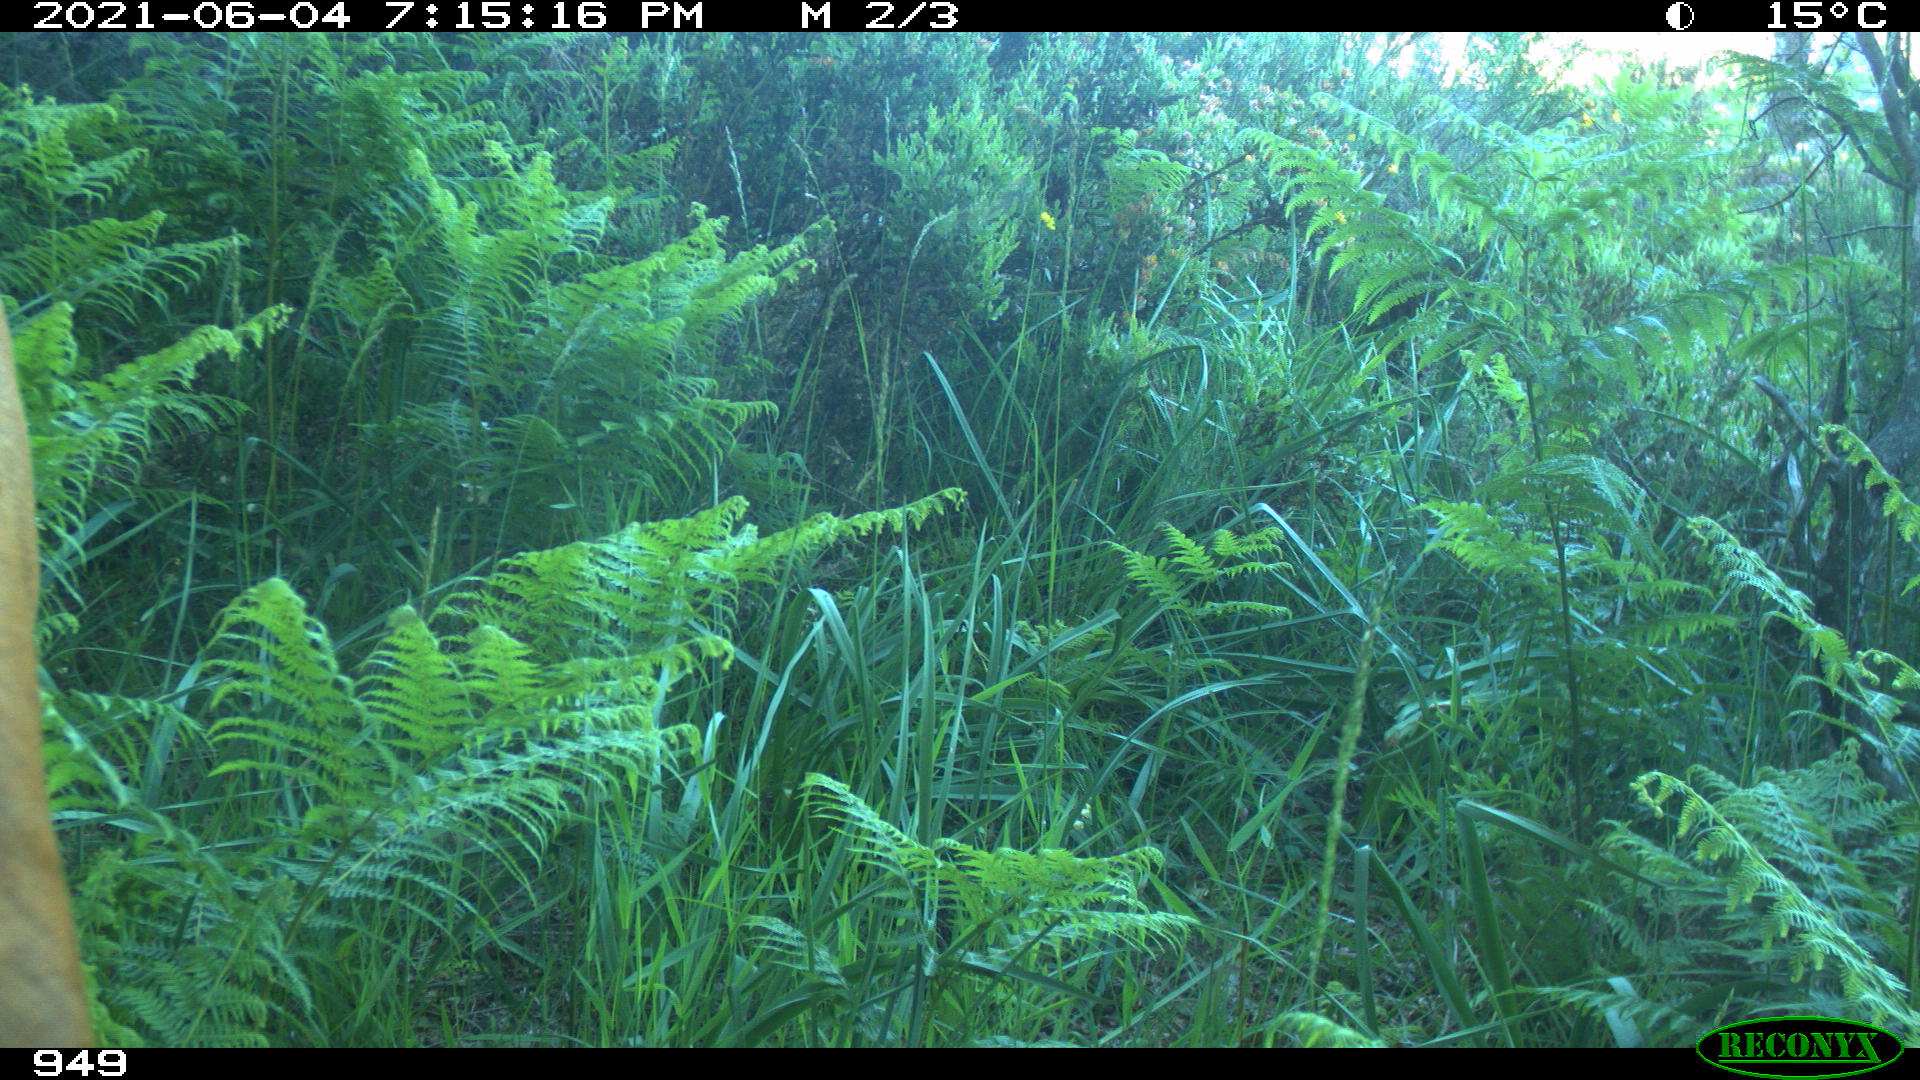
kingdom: Animalia
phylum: Chordata
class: Mammalia
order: Artiodactyla
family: Bovidae
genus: Bos
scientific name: Bos taurus
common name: Domesticated cattle
